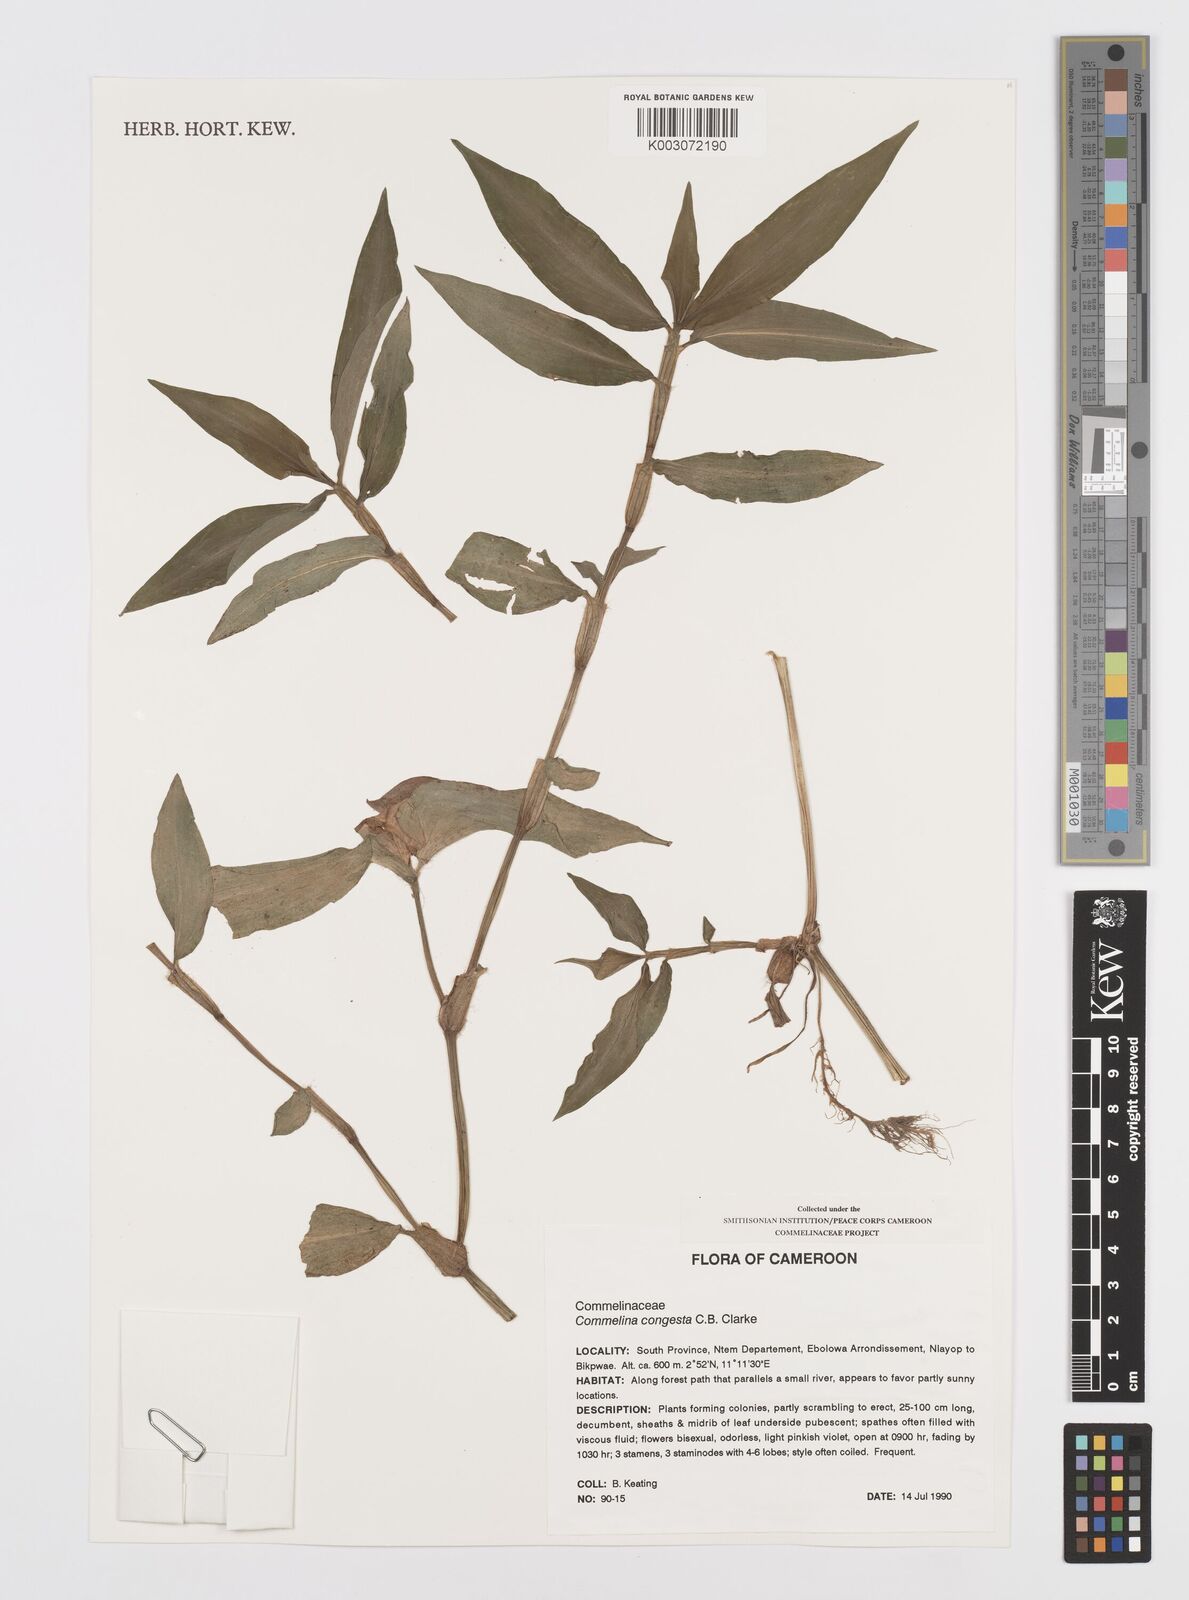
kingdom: Plantae
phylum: Tracheophyta
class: Liliopsida
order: Commelinales
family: Commelinaceae
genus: Commelina
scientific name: Commelina congesta
